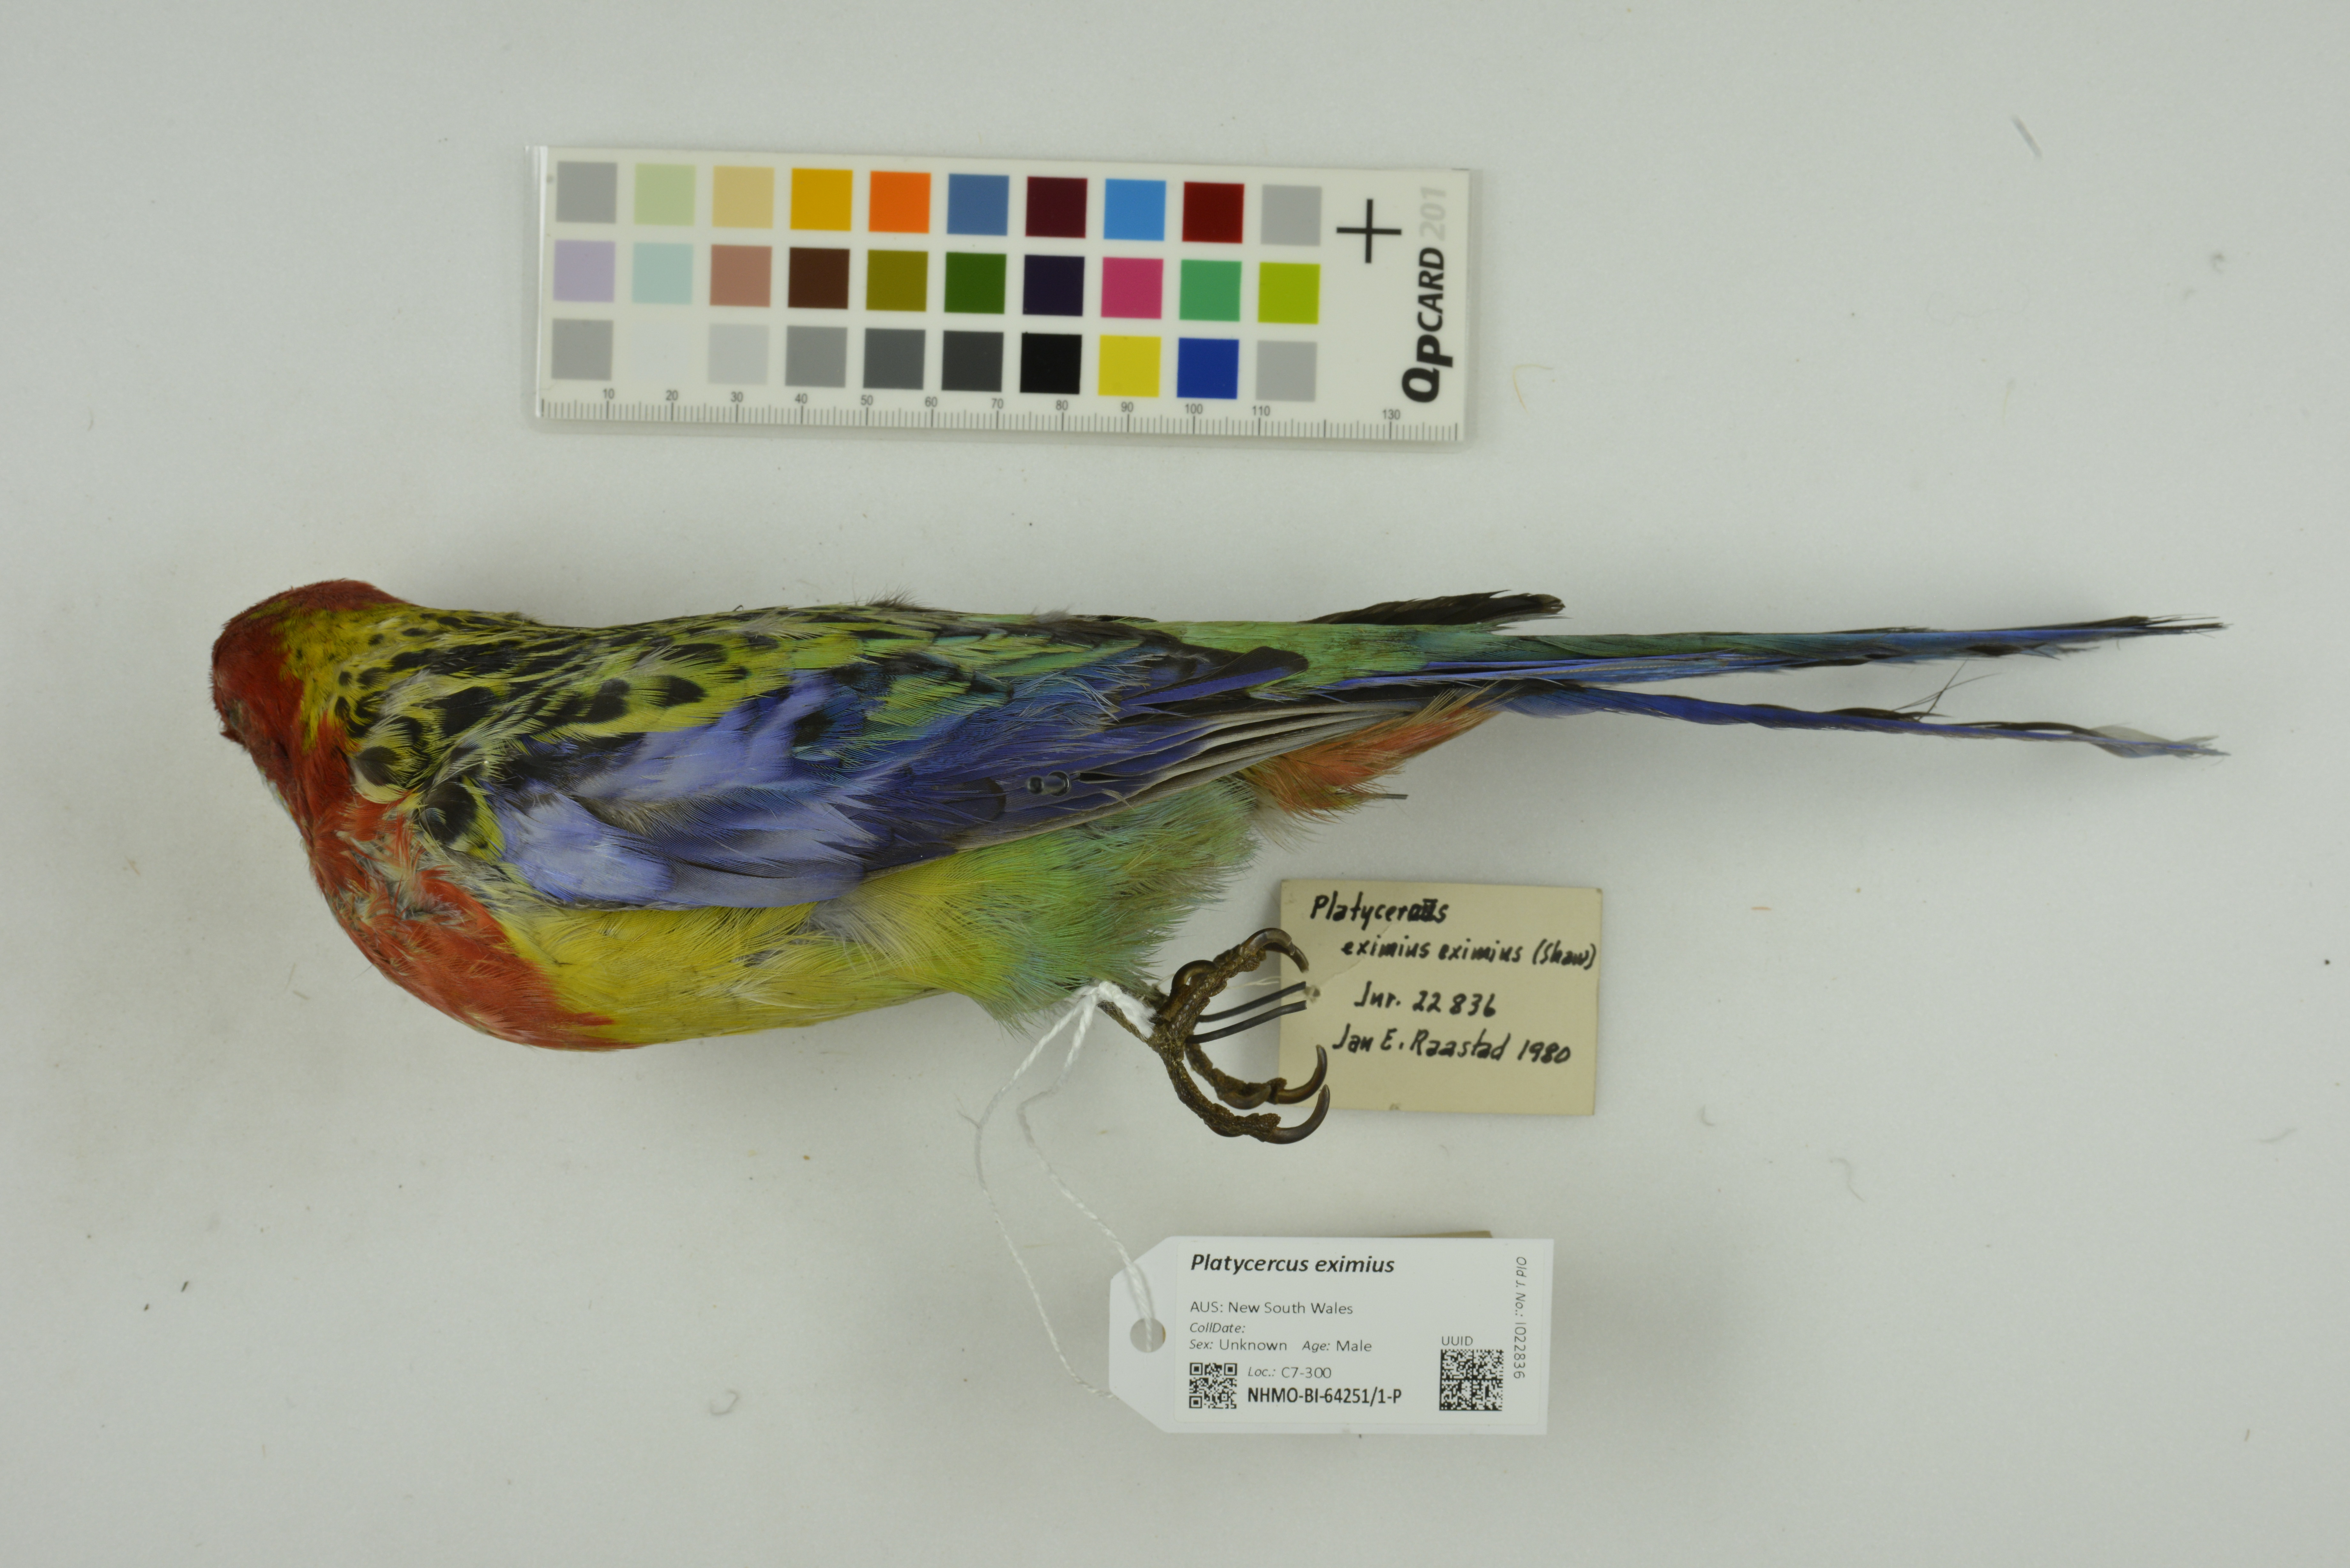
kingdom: Animalia
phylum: Chordata
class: Aves
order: Psittaciformes
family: Psittacidae
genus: Platycercus
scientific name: Platycercus eximius
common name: Eastern rosella
